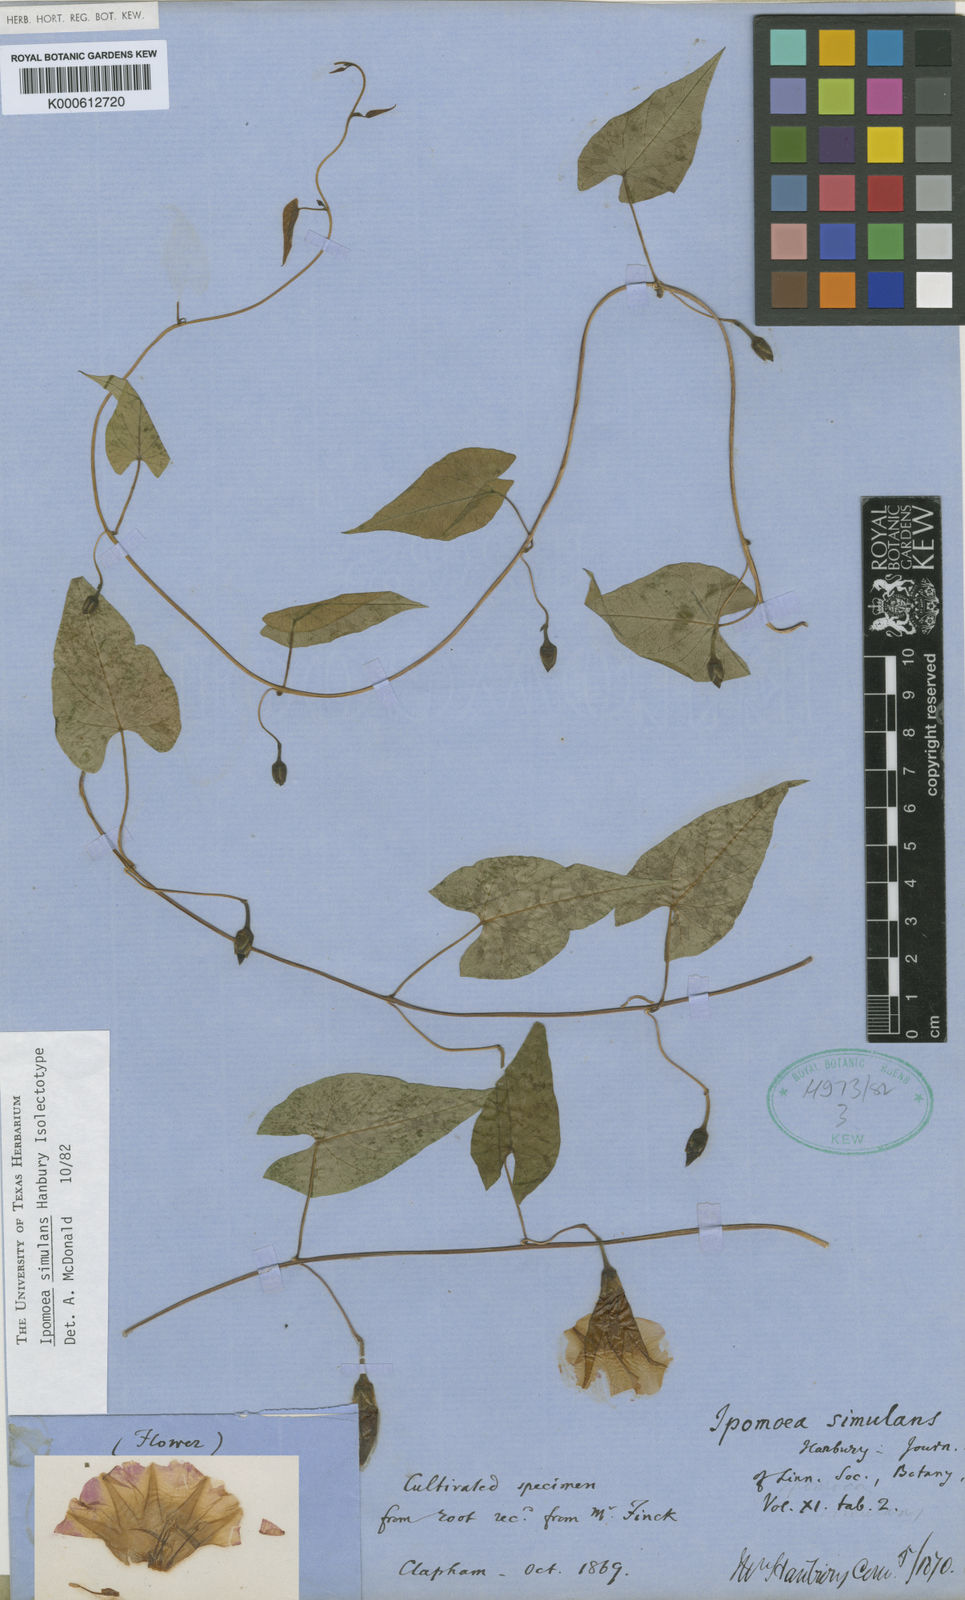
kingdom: Plantae
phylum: Tracheophyta
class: Magnoliopsida
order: Solanales
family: Convolvulaceae
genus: Ipomoea
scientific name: Ipomoea simulans
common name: Tampico jalap
